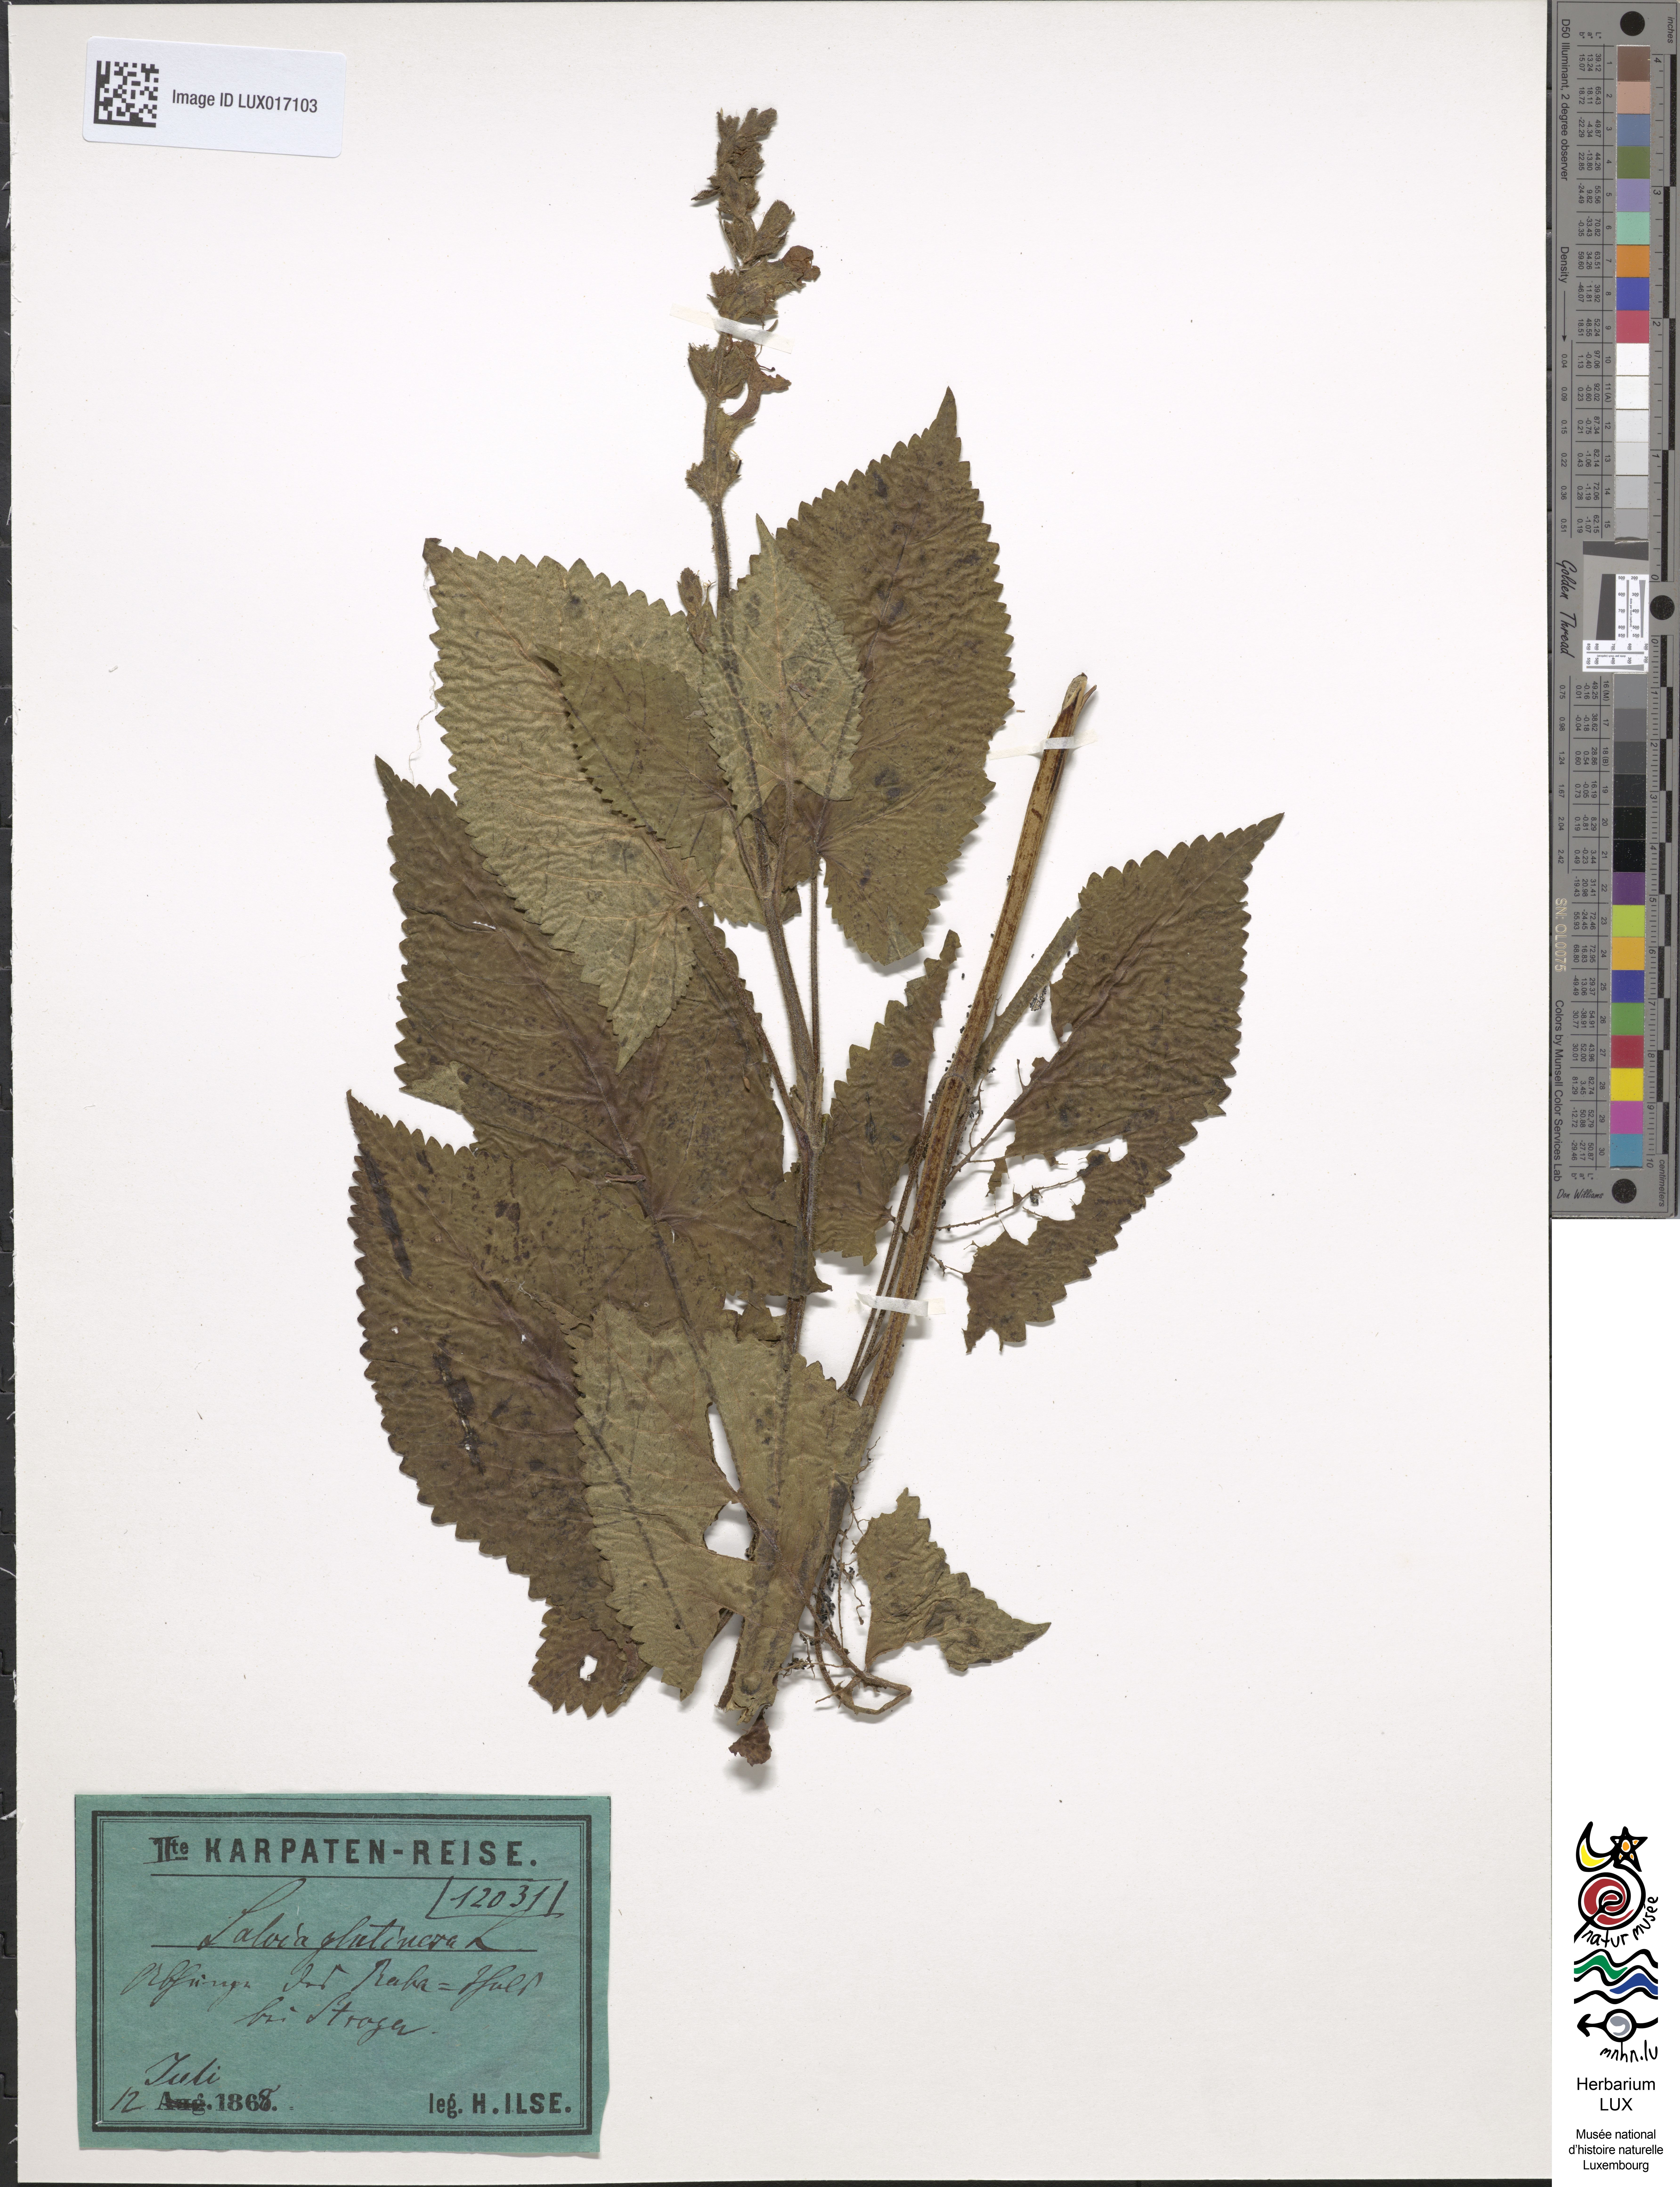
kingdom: Plantae
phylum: Tracheophyta
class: Magnoliopsida
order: Lamiales
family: Lamiaceae
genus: Salvia
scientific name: Salvia glutinosa
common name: Sticky clary
